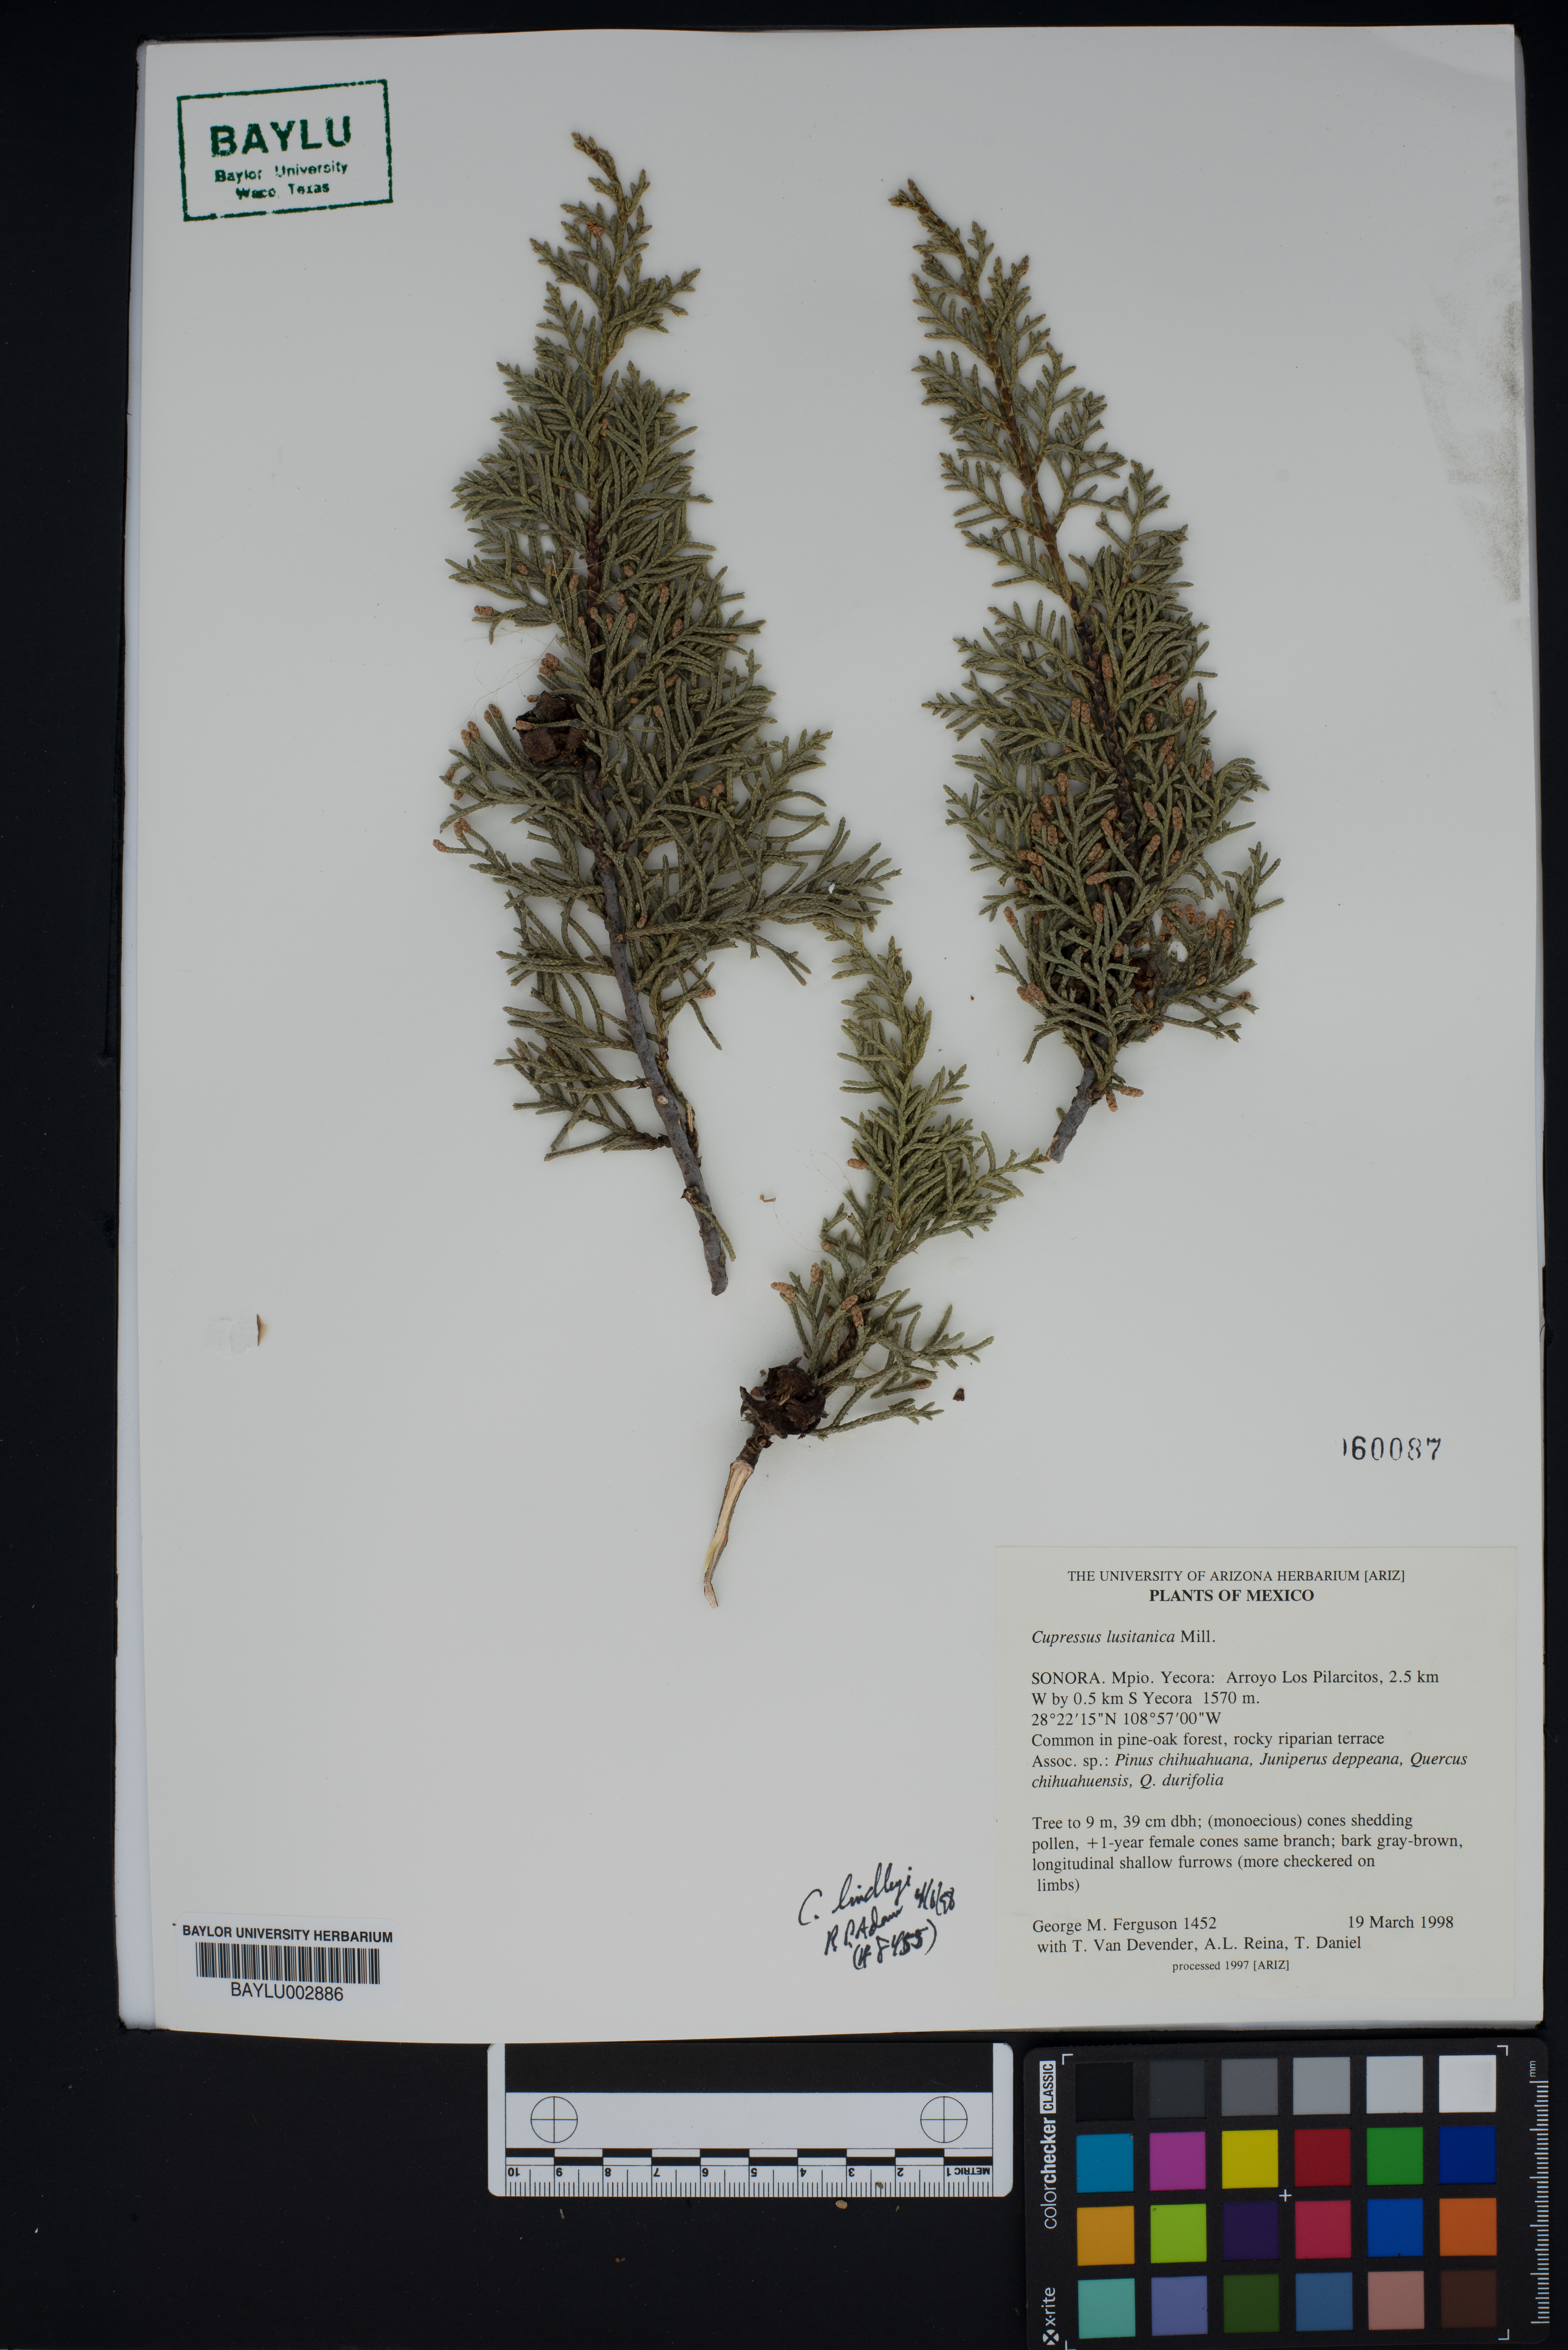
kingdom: Plantae
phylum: Tracheophyta
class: Pinopsida
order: Pinales
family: Cupressaceae
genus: Cupressus
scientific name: Cupressus lusitanica
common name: Mexican cypress
